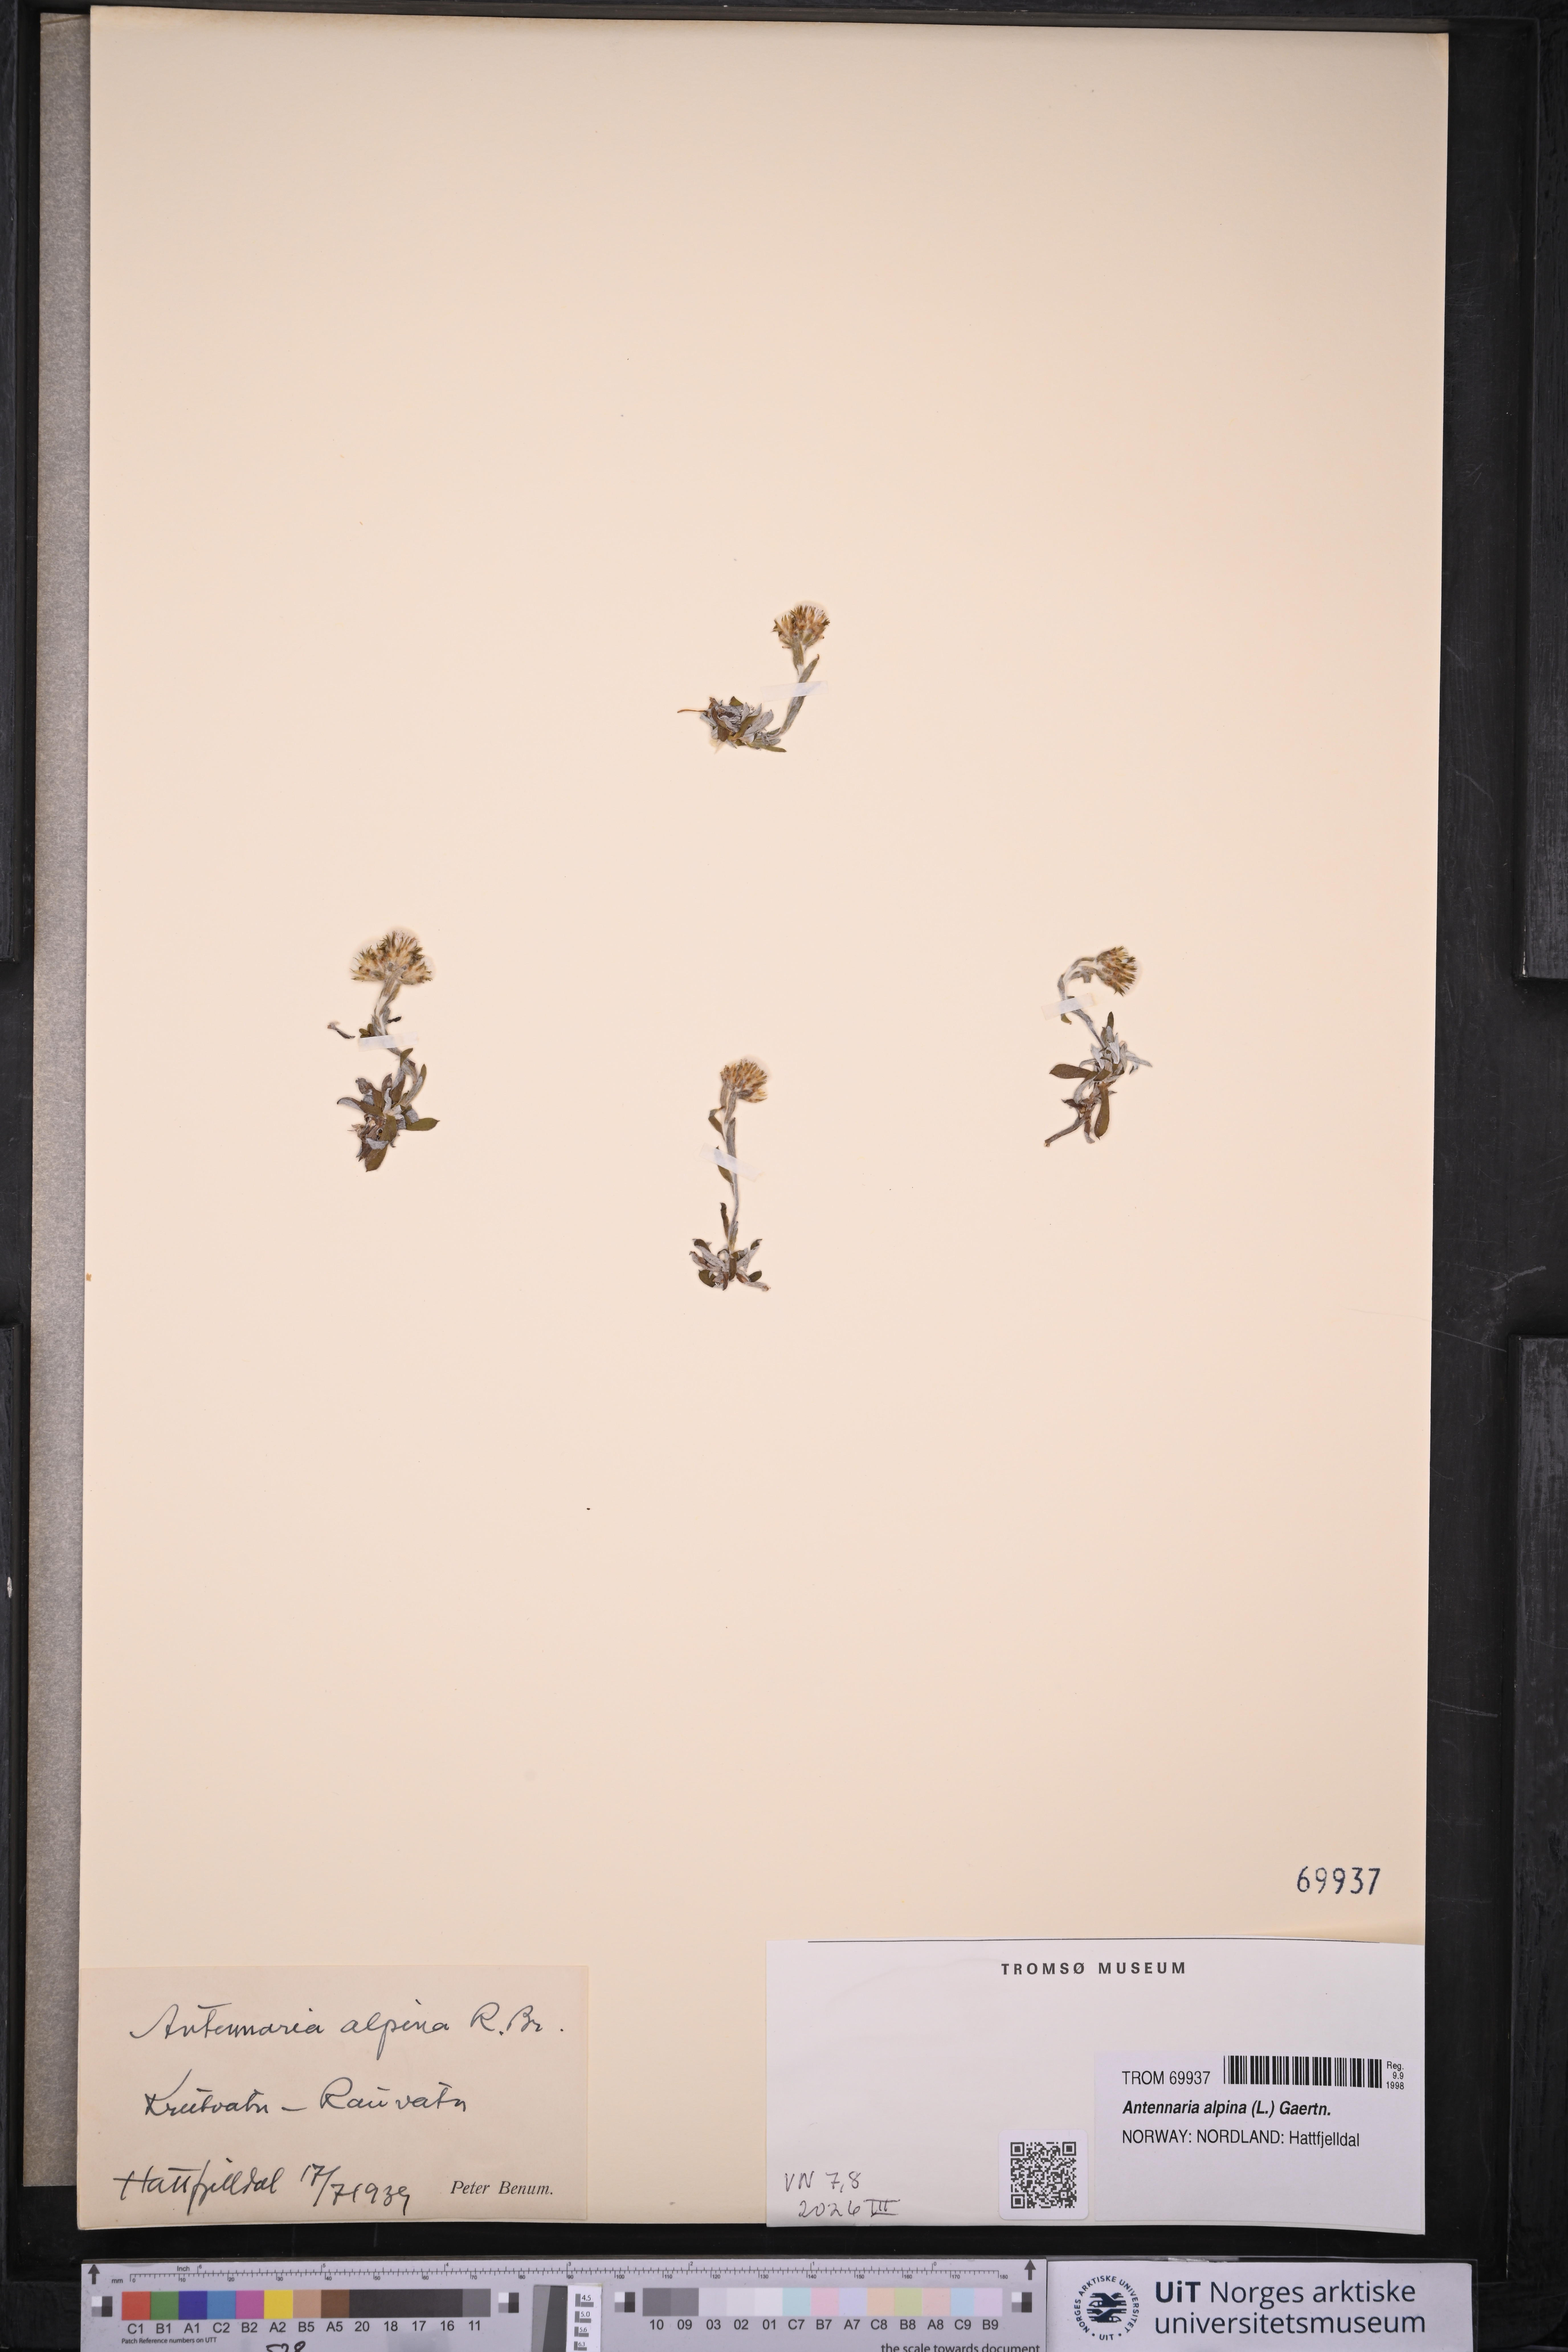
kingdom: Plantae
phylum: Tracheophyta
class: Magnoliopsida
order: Asterales
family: Asteraceae
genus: Antennaria
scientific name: Antennaria alpina
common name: Alpine pussytoes
